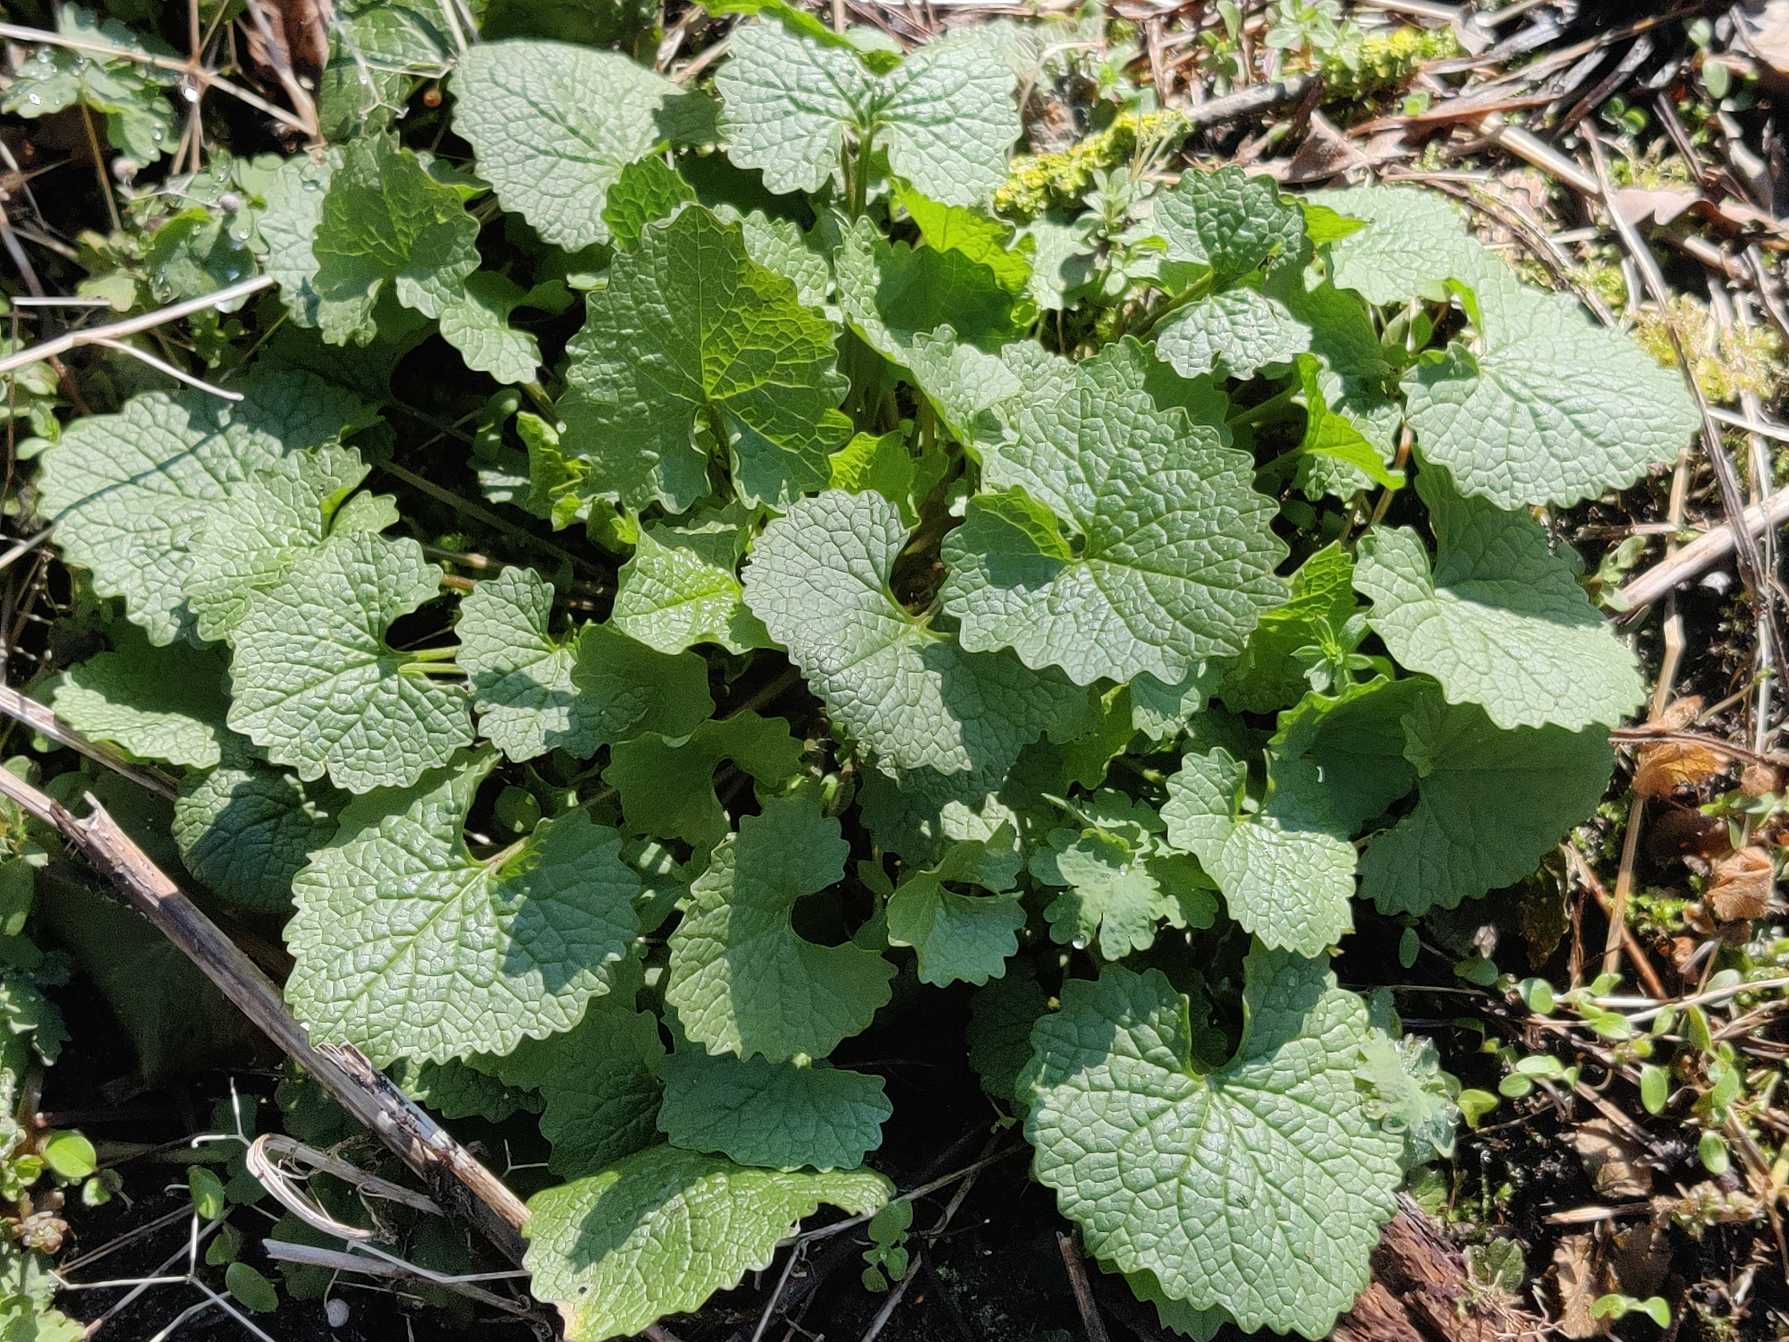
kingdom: Plantae
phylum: Tracheophyta
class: Magnoliopsida
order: Brassicales
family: Brassicaceae
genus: Alliaria
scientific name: Alliaria petiolata
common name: Løgkarse
